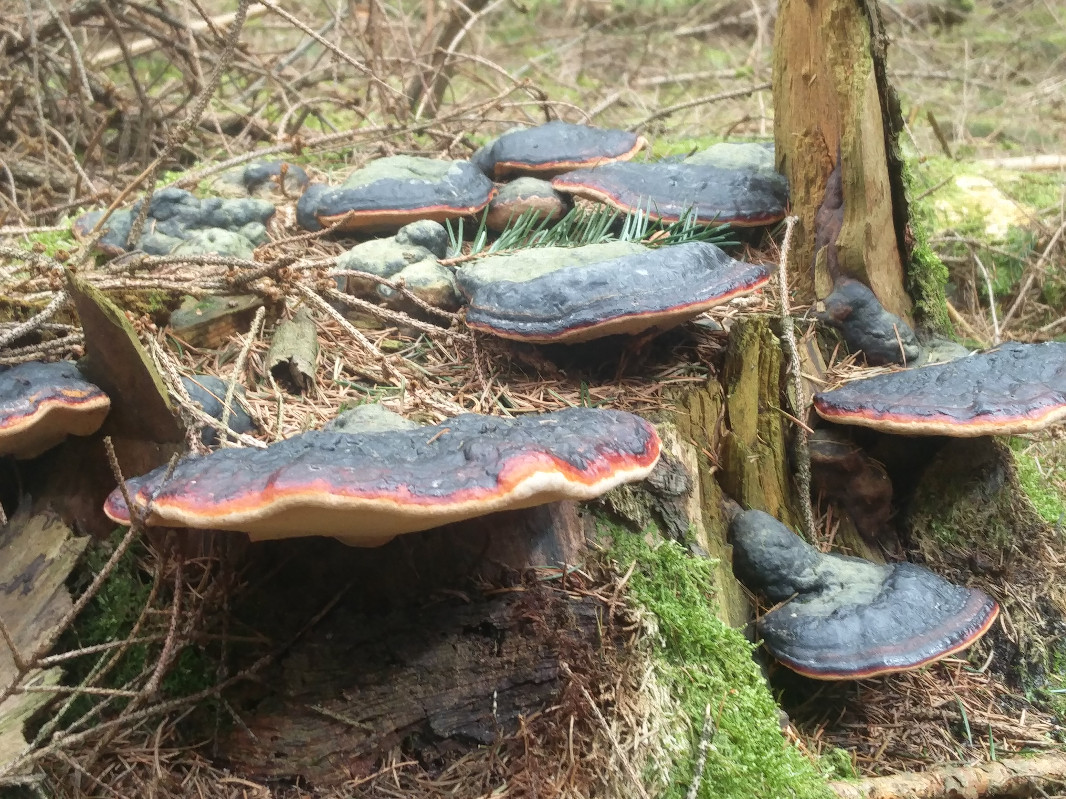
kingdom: Fungi
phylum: Basidiomycota
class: Agaricomycetes
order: Polyporales
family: Fomitopsidaceae
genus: Fomitopsis
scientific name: Fomitopsis pinicola
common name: randbæltet hovporesvamp
